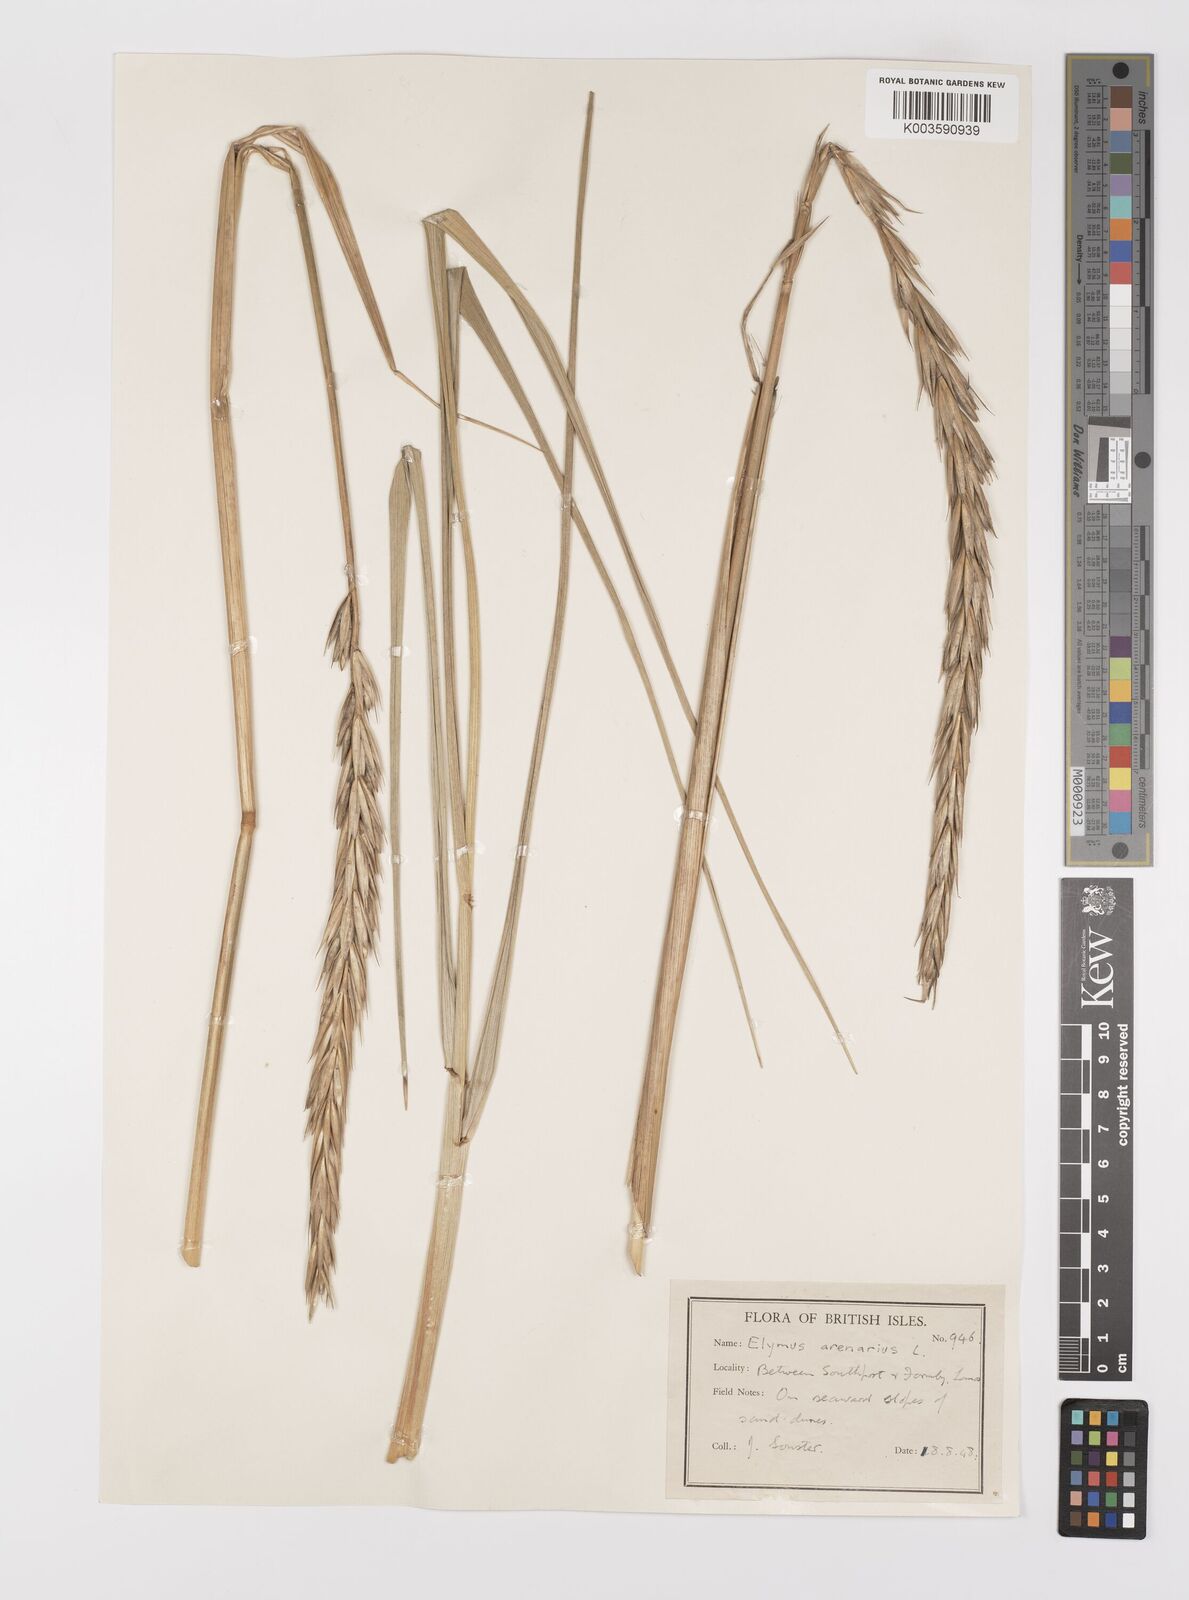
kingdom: Plantae
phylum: Tracheophyta
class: Liliopsida
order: Poales
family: Poaceae
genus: Leymus
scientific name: Leymus arenarius
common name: Lyme-grass
